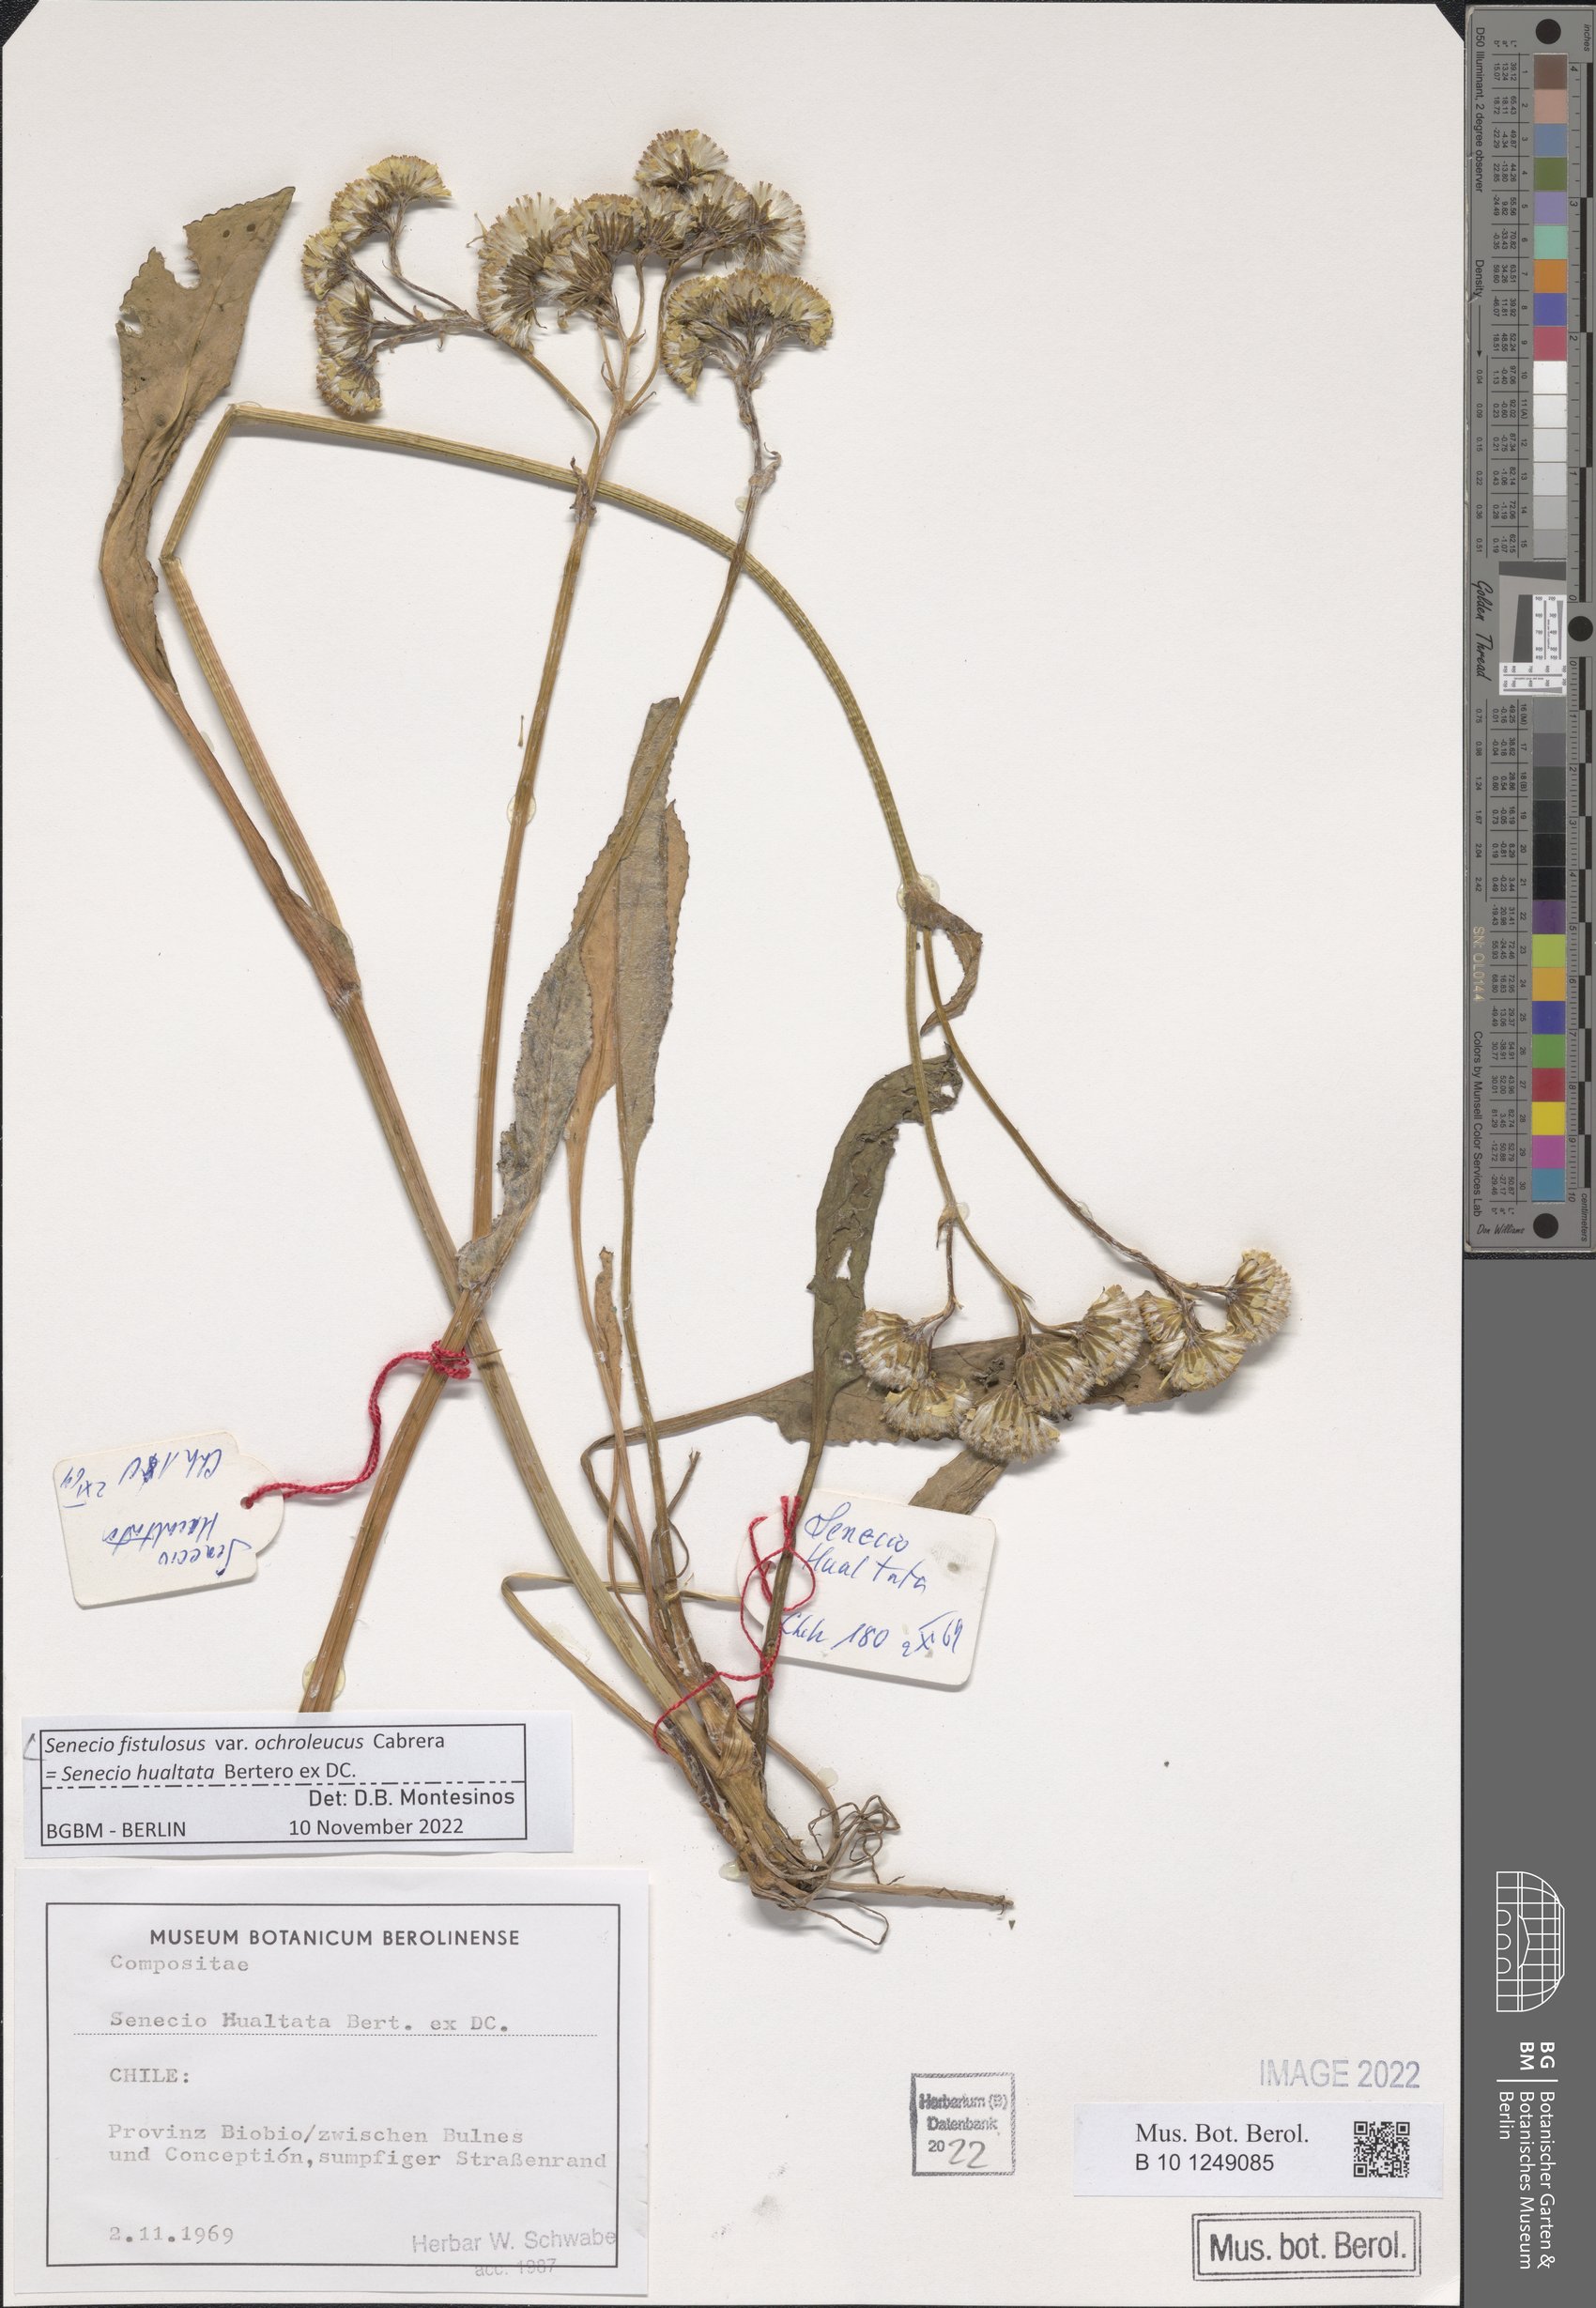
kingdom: Plantae
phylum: Tracheophyta
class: Magnoliopsida
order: Asterales
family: Asteraceae
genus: Senecio
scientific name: Senecio fistulosus
